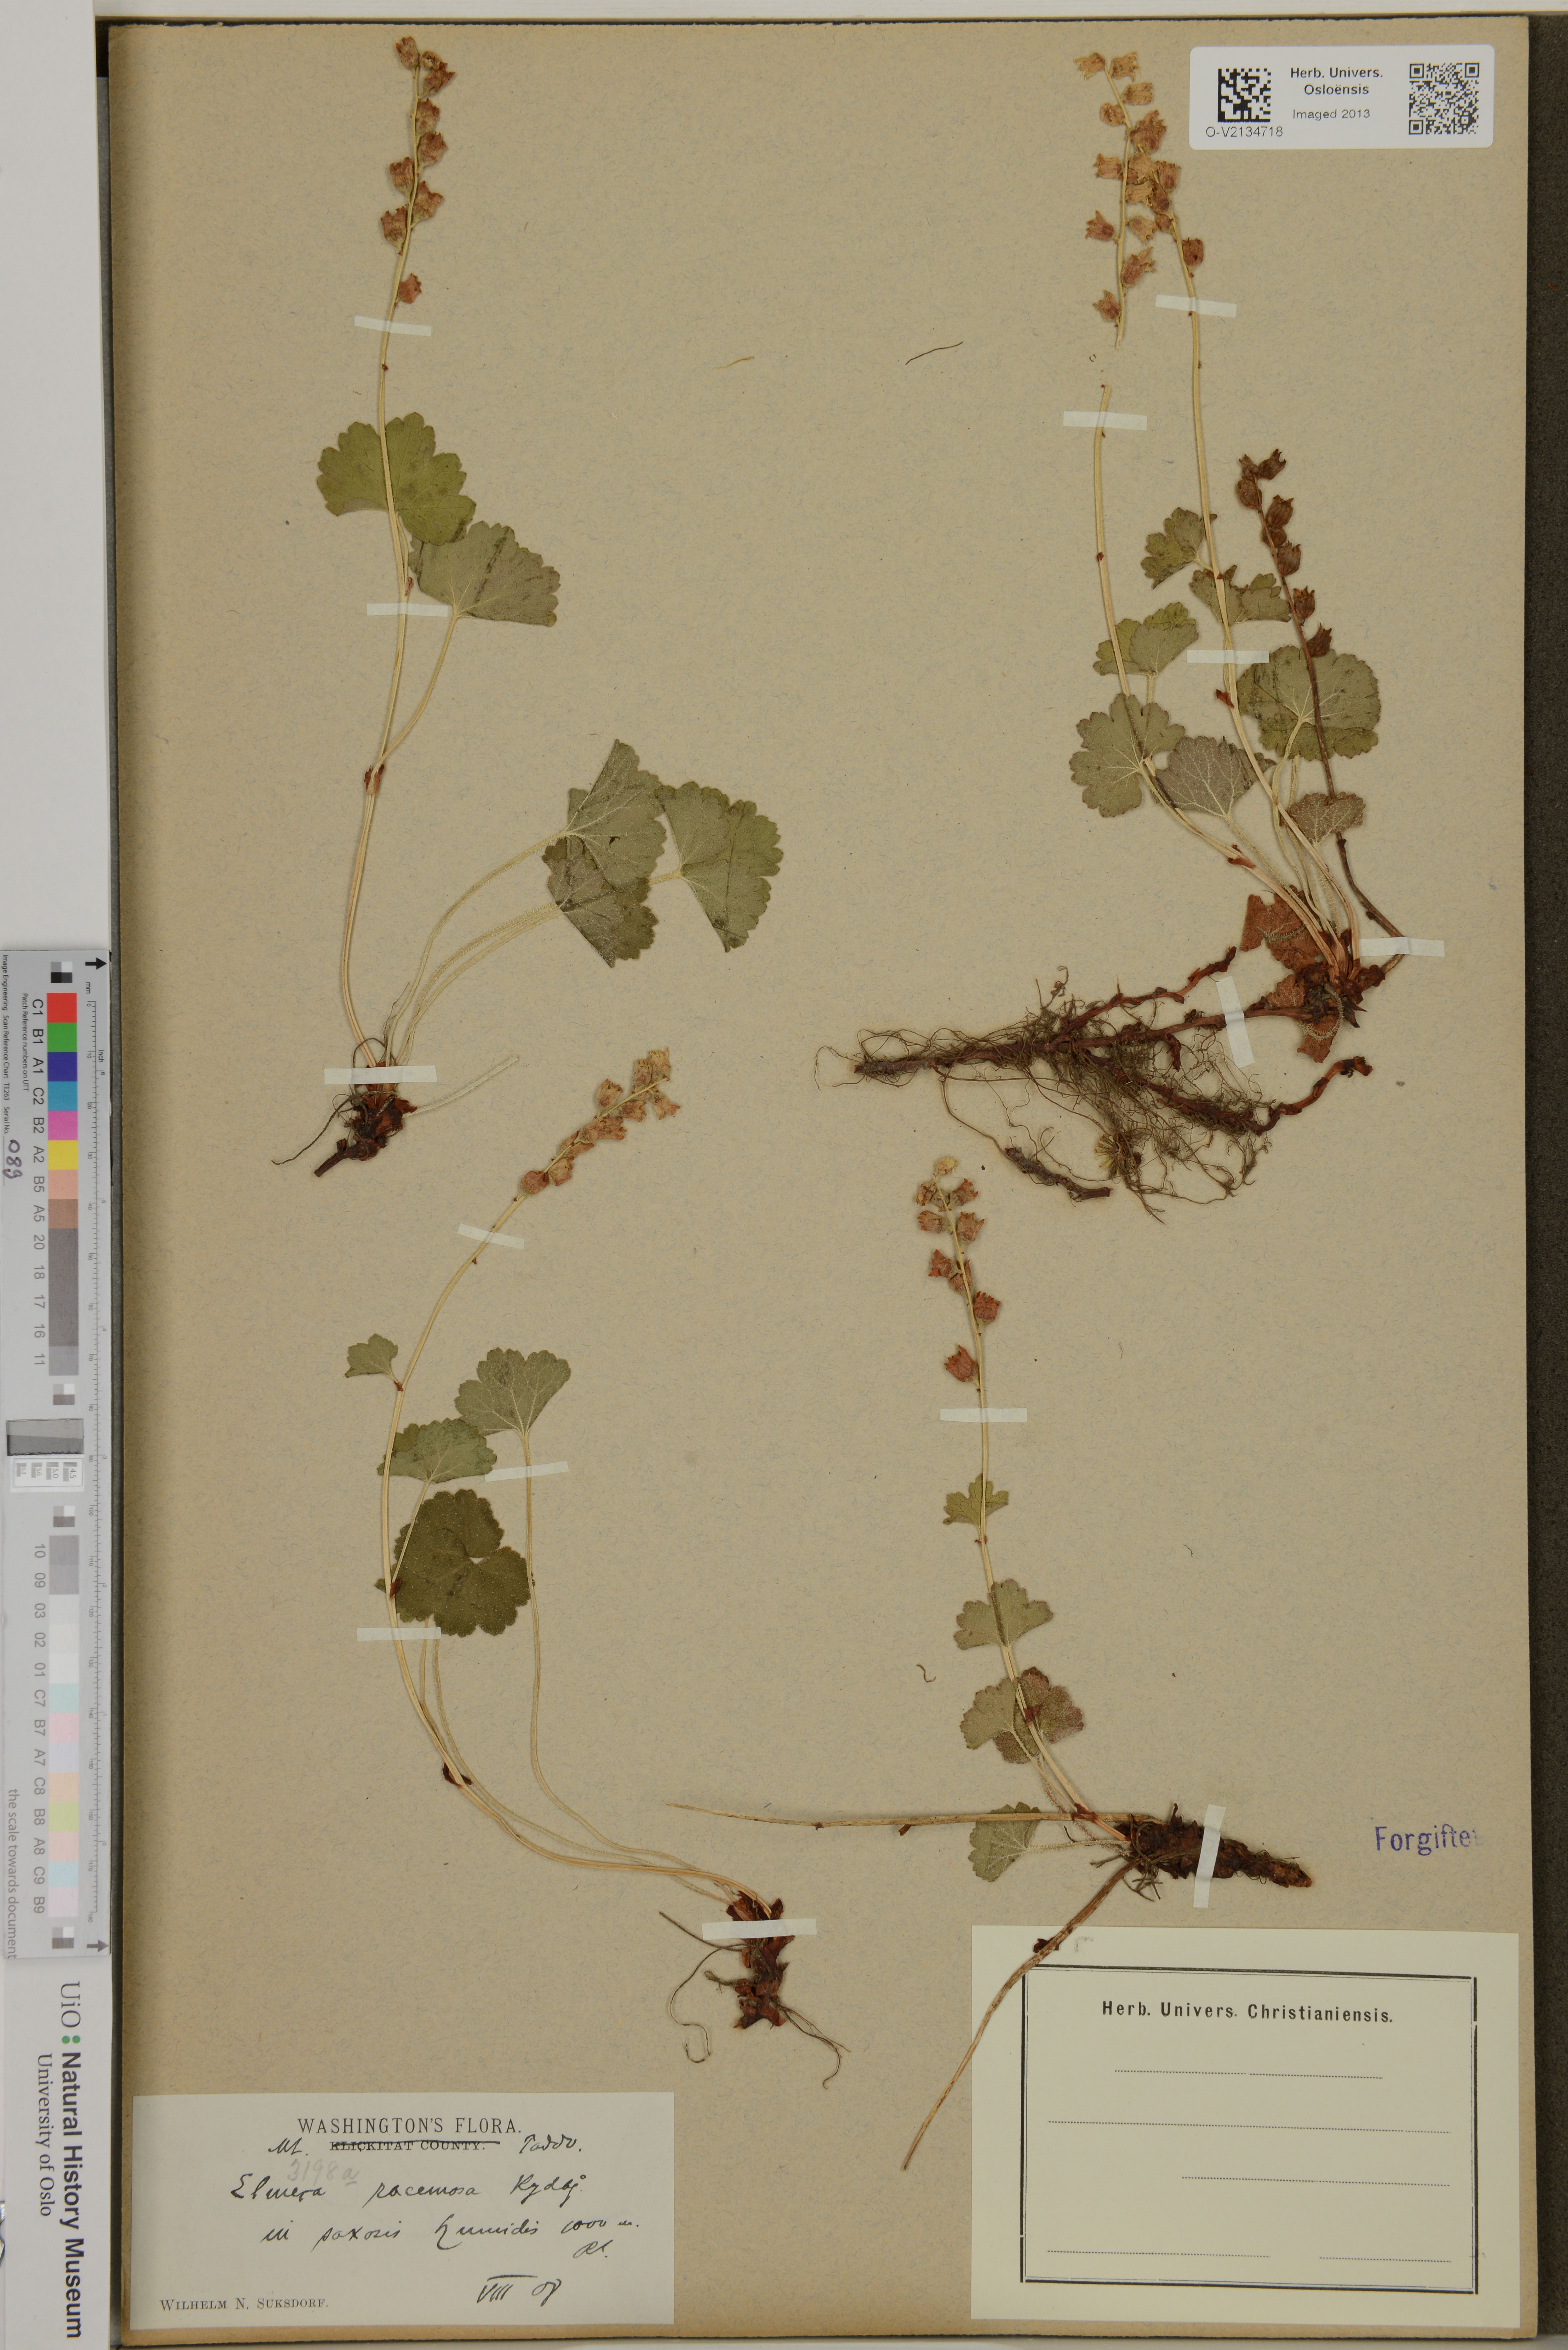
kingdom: Plantae
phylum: Tracheophyta
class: Magnoliopsida
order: Saxifragales
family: Saxifragaceae
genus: Elmera
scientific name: Elmera racemosa
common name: Elmera
